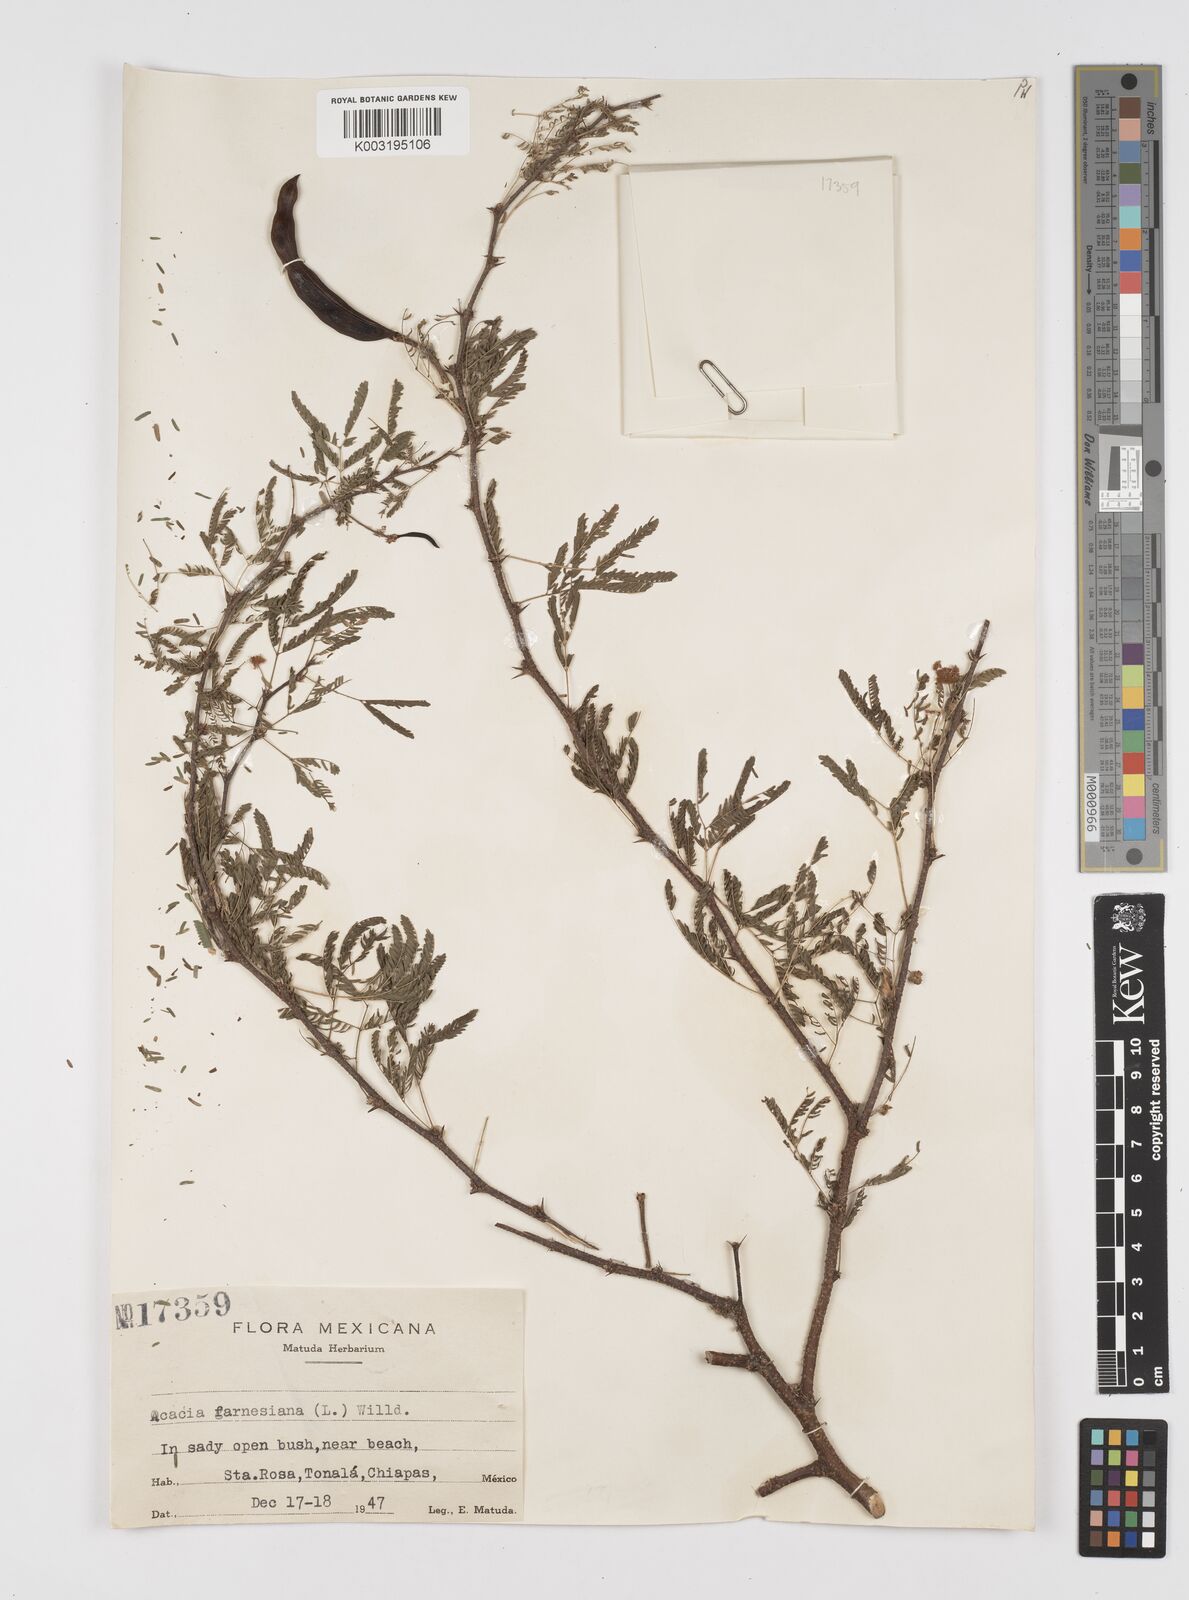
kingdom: Plantae
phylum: Tracheophyta
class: Magnoliopsida
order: Fabales
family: Fabaceae
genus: Vachellia
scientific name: Vachellia farnesiana
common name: Sweet acacia
